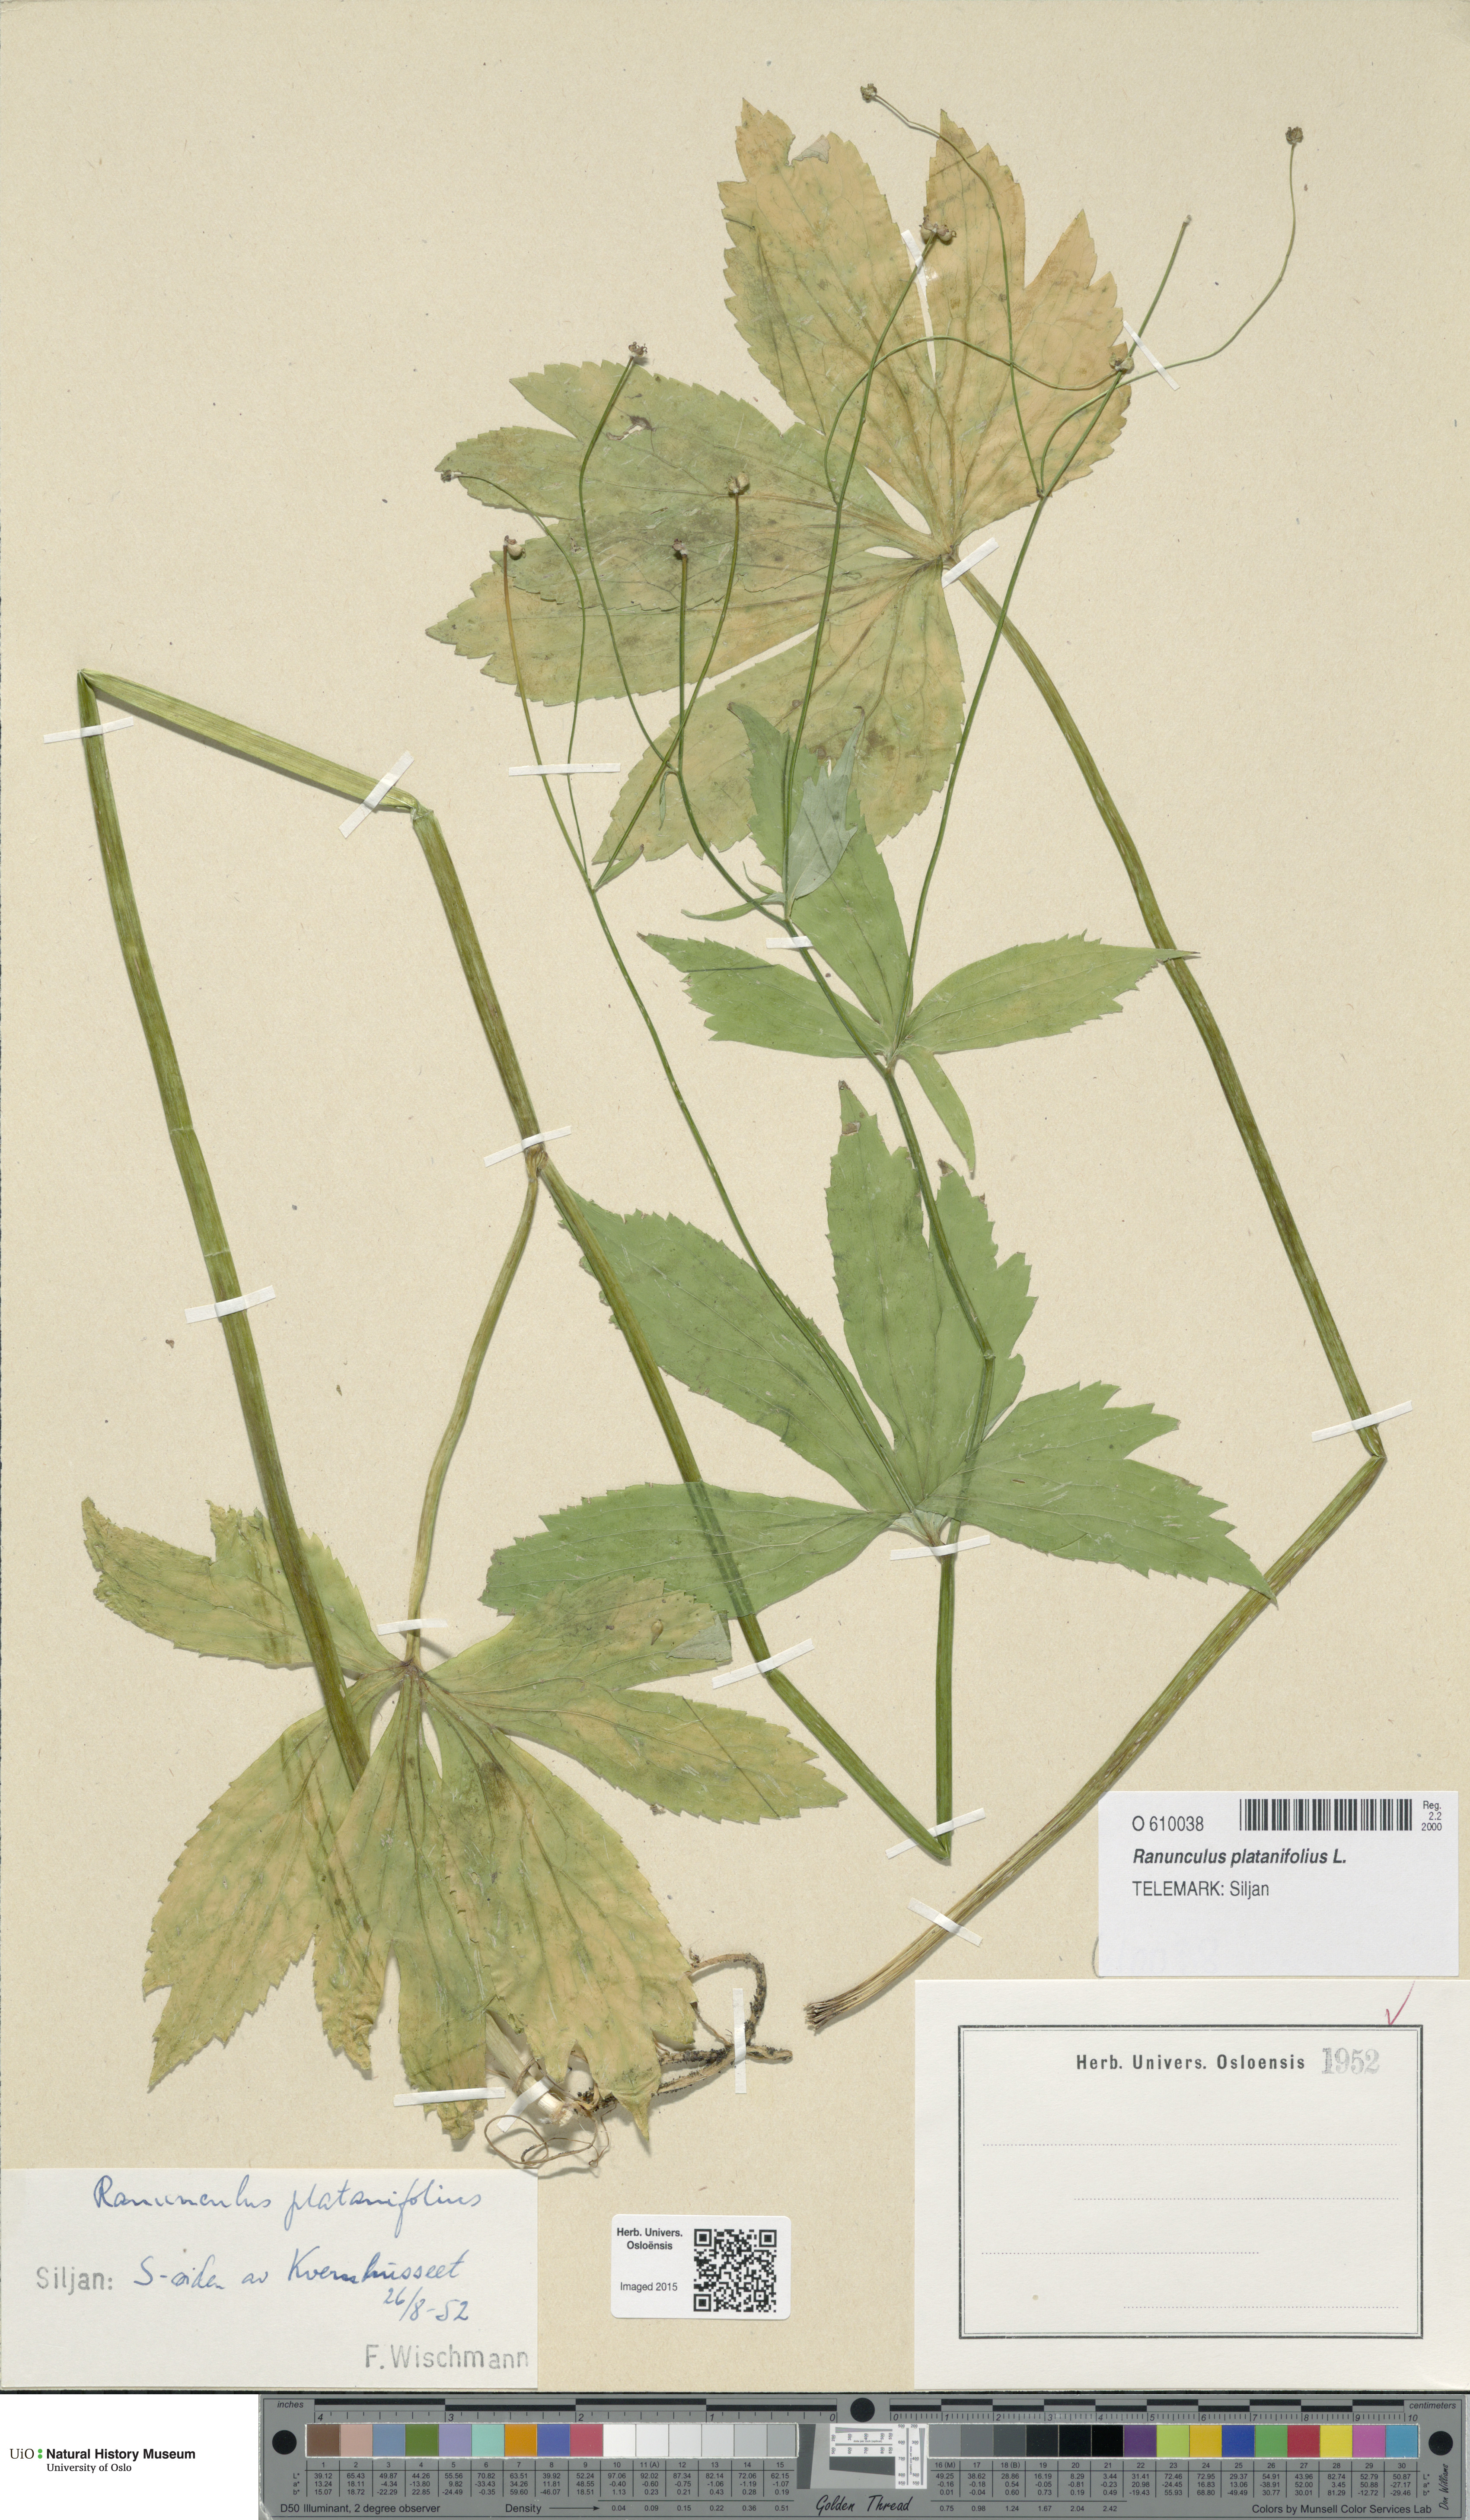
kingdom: Plantae
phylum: Tracheophyta
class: Magnoliopsida
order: Ranunculales
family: Ranunculaceae
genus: Ranunculus
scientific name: Ranunculus platanifolius
